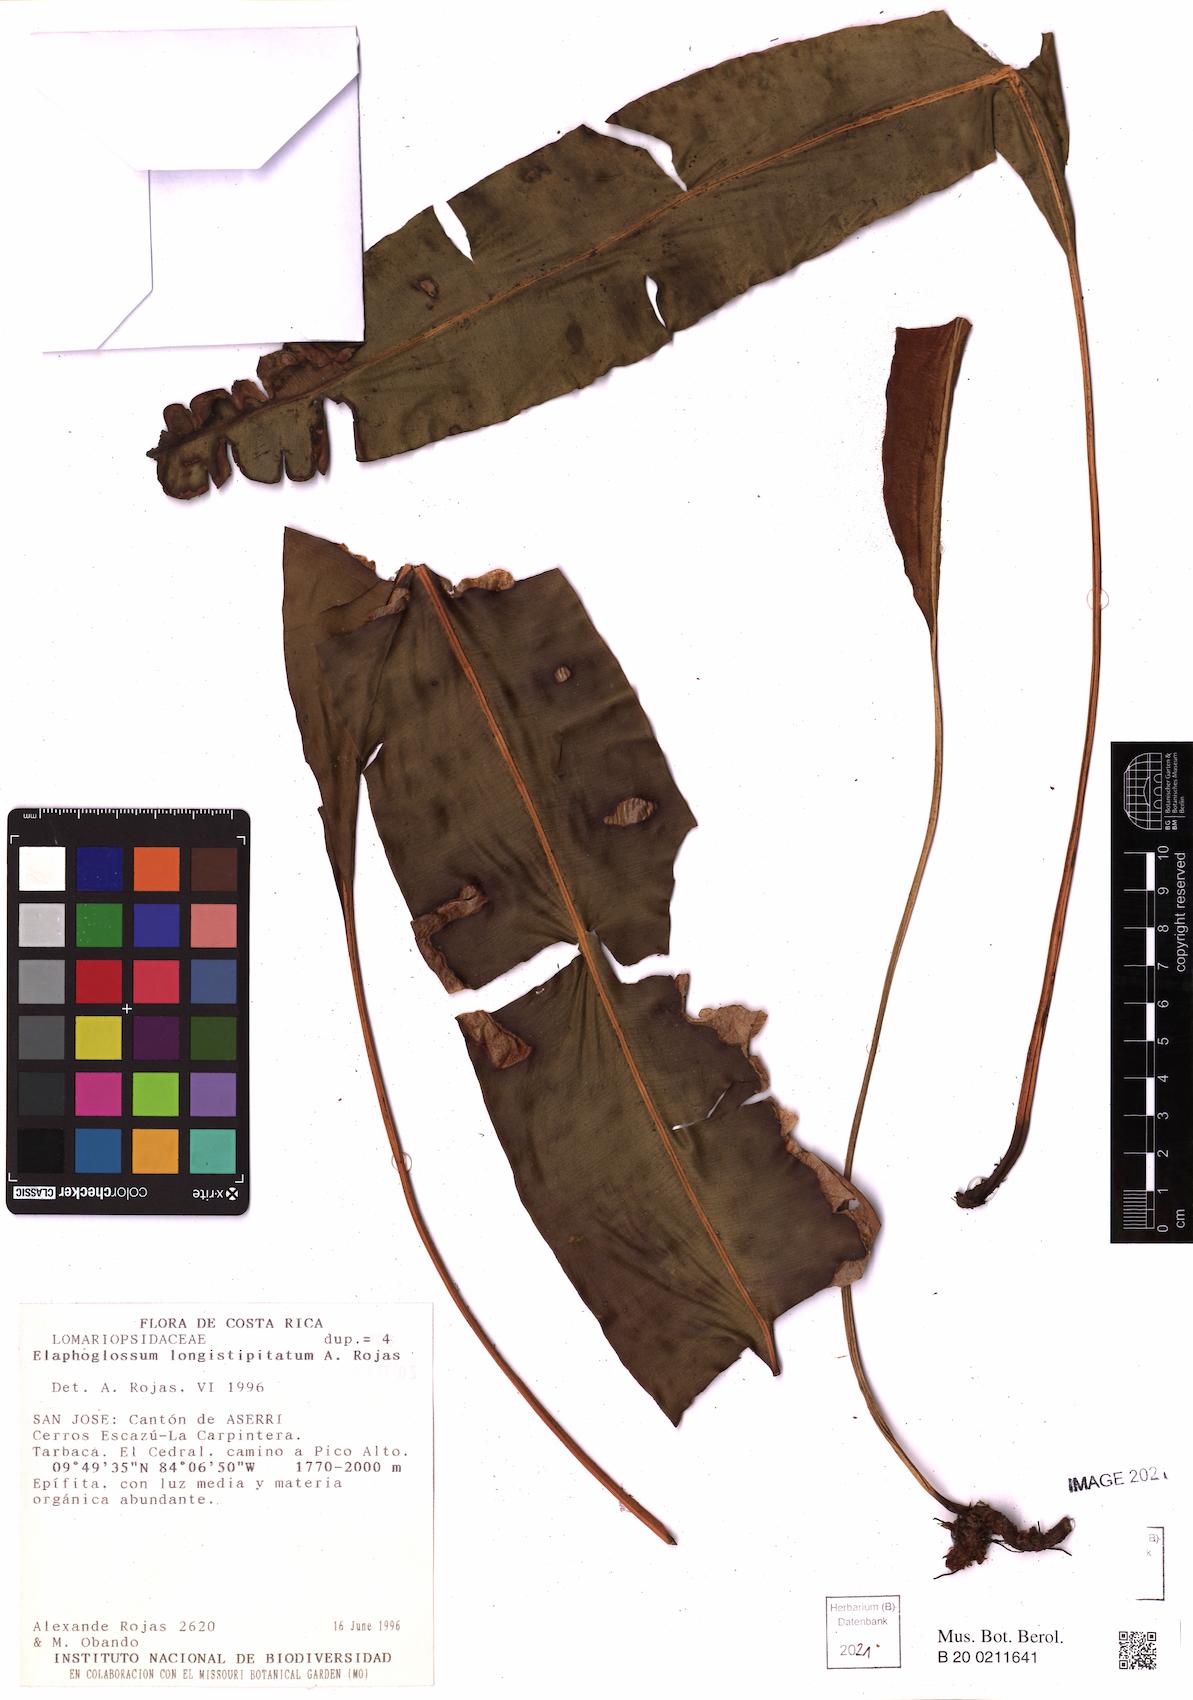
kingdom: Plantae
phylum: Tracheophyta
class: Polypodiopsida
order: Polypodiales
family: Dryopteridaceae
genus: Elaphoglossum
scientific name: Elaphoglossum longistipitatum
